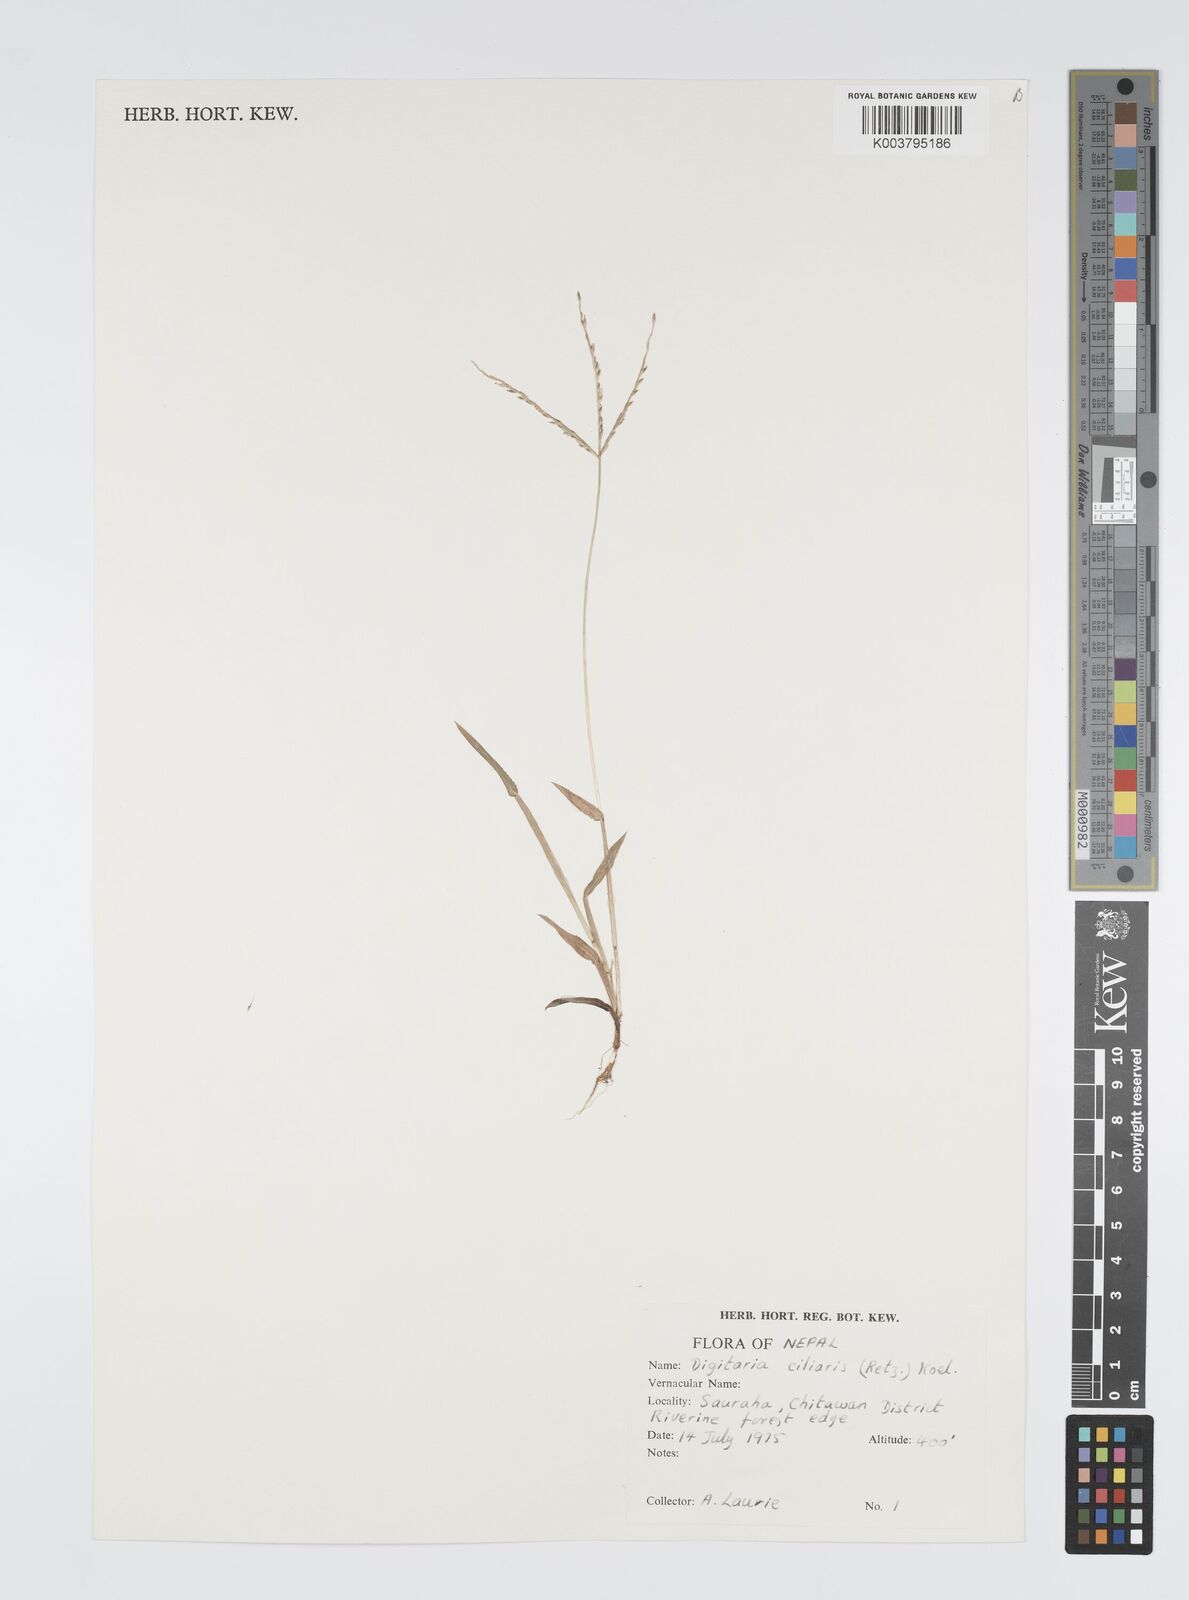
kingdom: Plantae
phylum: Tracheophyta
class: Liliopsida
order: Poales
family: Poaceae
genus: Digitaria
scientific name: Digitaria ciliaris
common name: Tropical finger-grass
